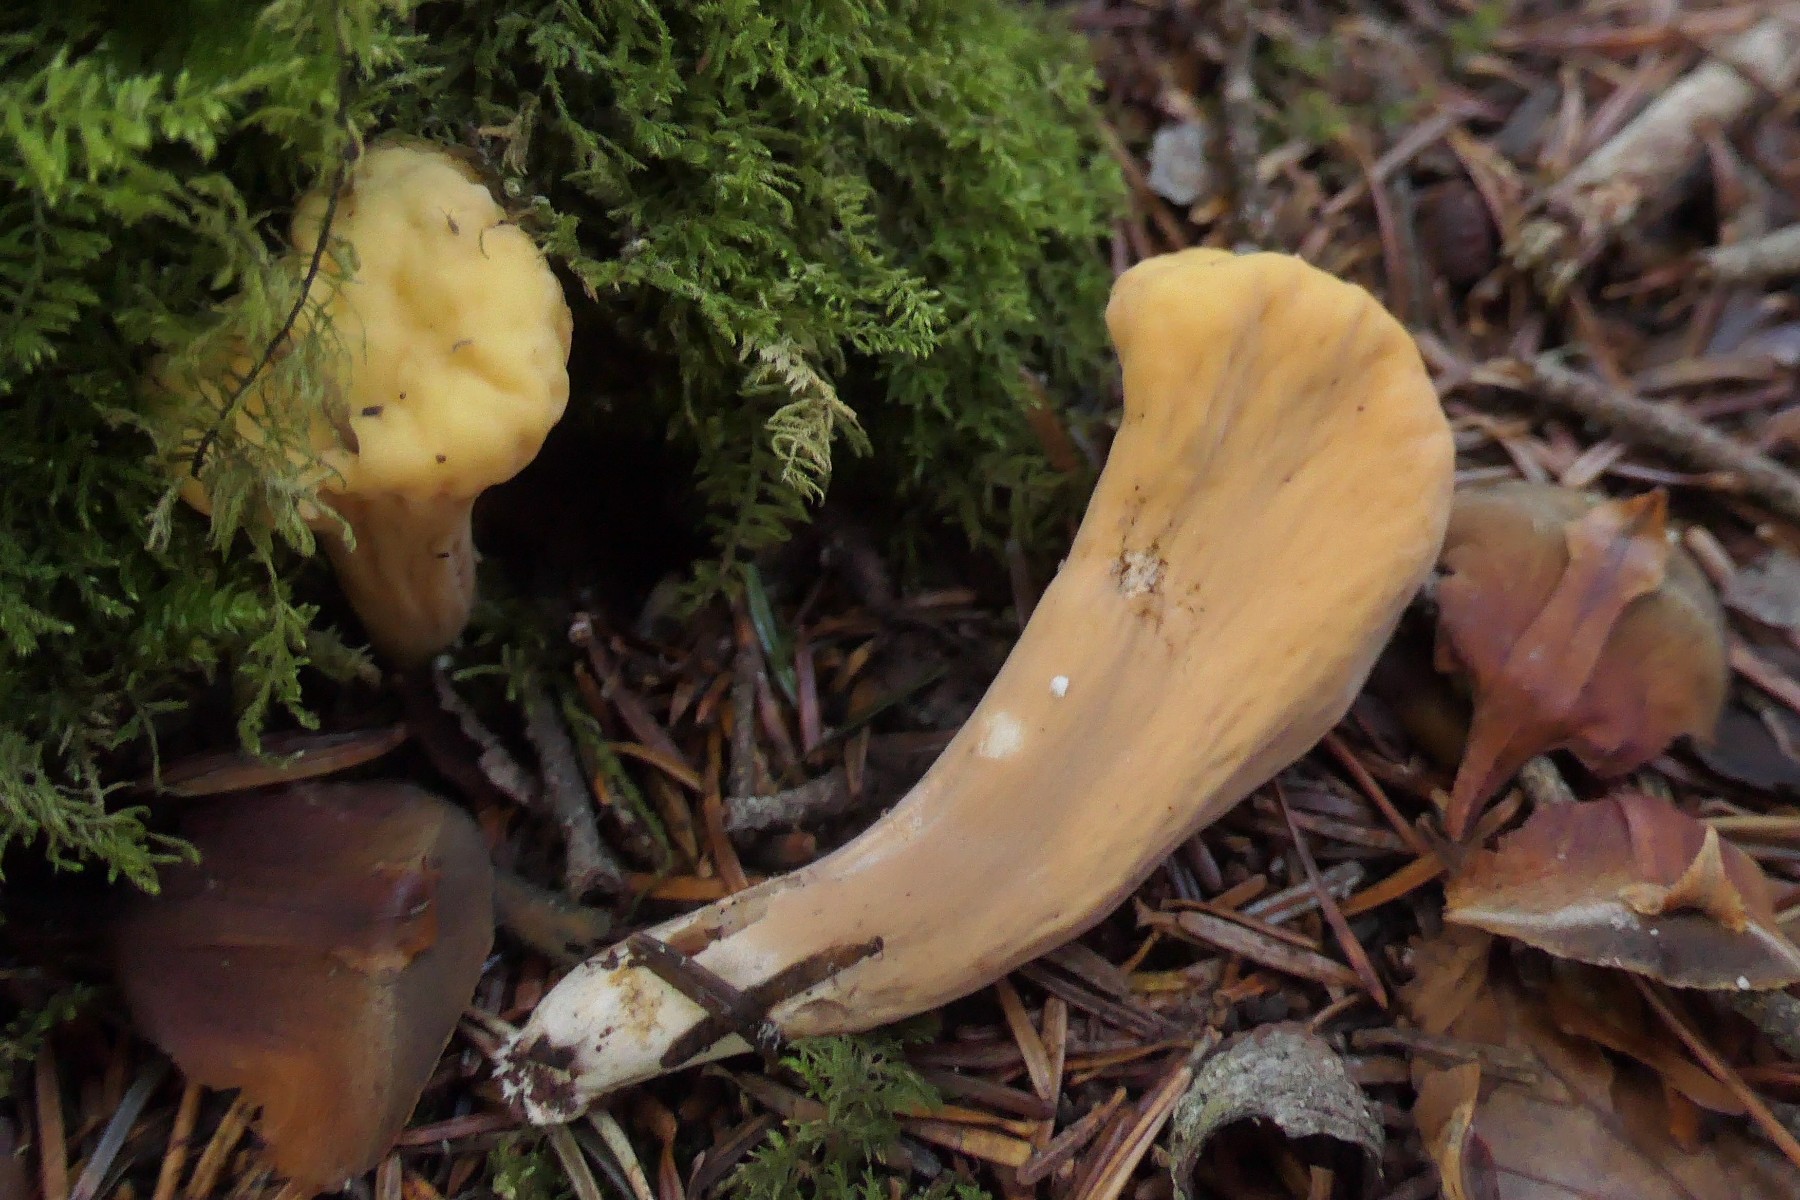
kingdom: Fungi
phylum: Basidiomycota
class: Agaricomycetes
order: Gomphales
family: Clavariadelphaceae
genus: Clavariadelphus
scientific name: Clavariadelphus truncatus
